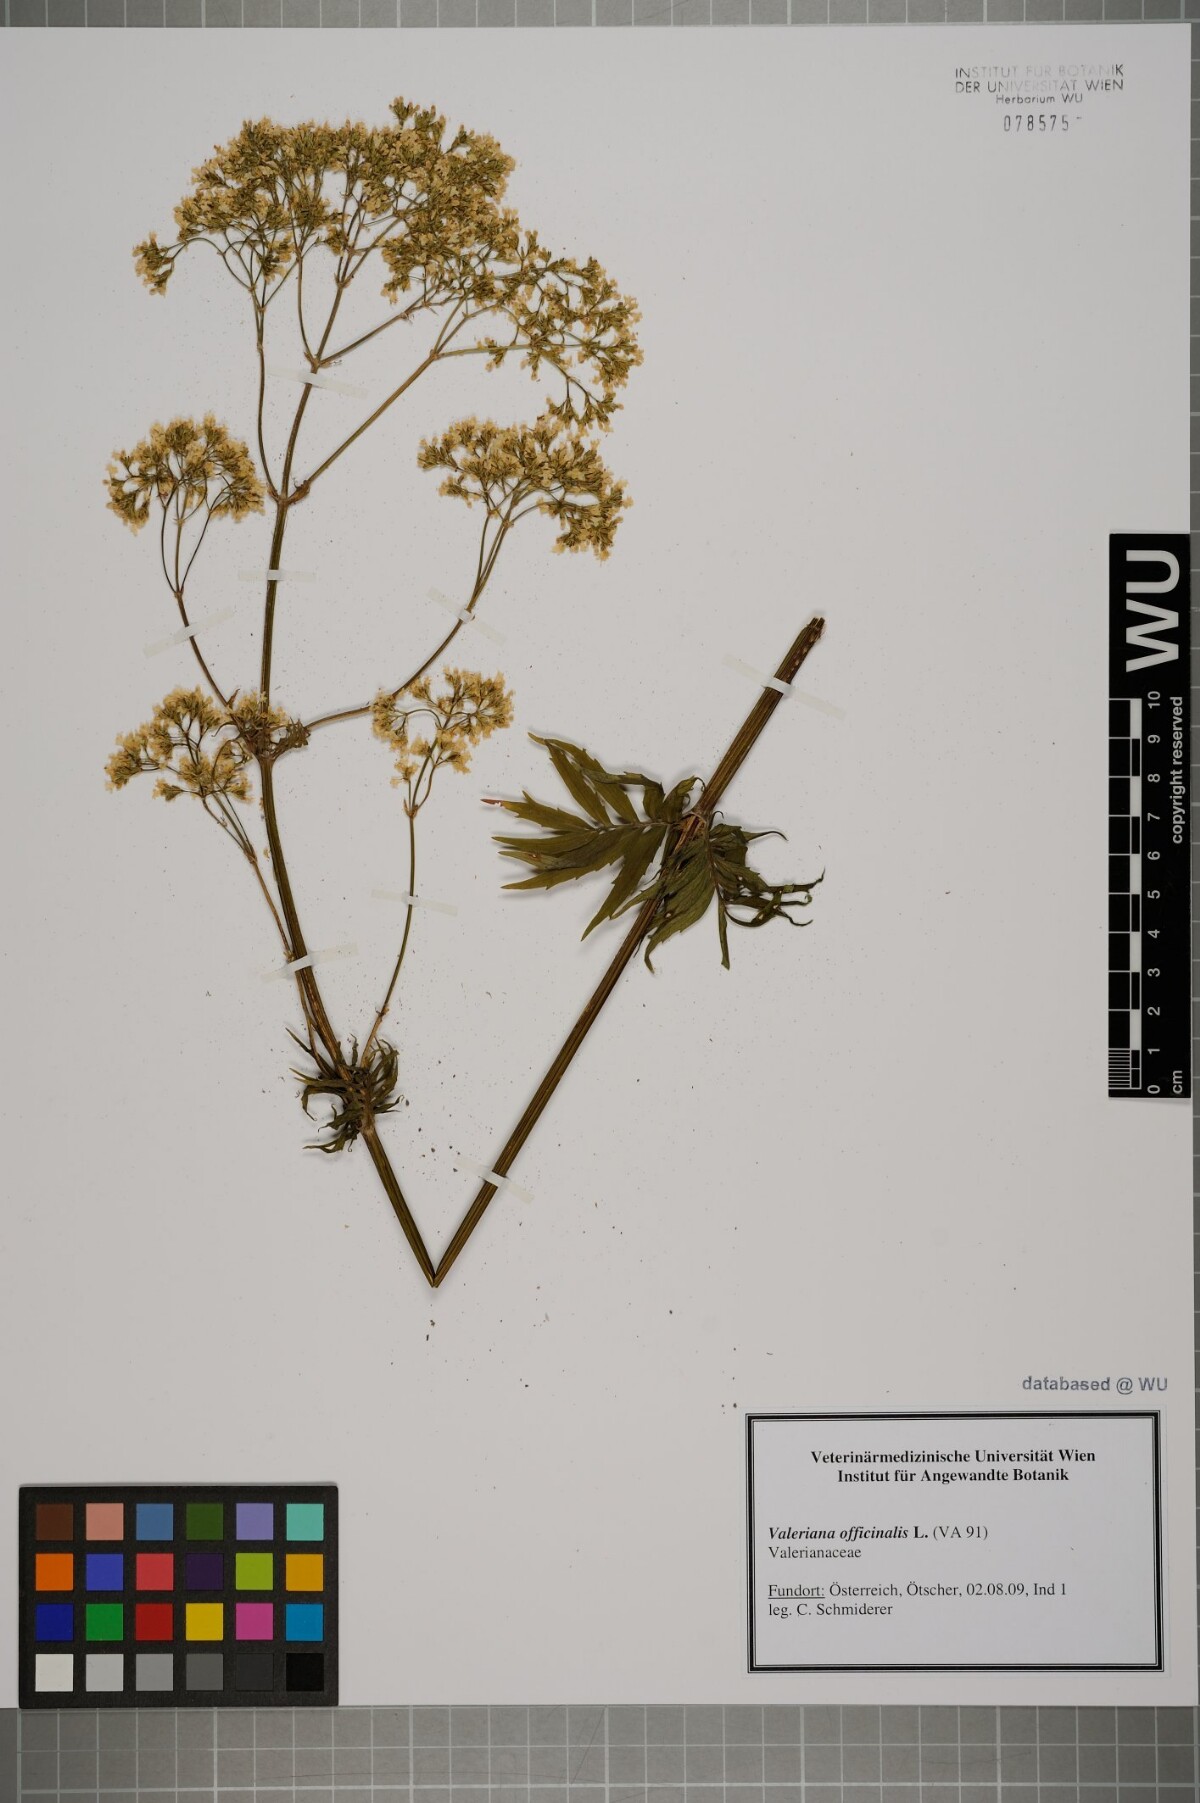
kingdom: Plantae
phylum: Tracheophyta
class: Magnoliopsida
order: Dipsacales
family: Caprifoliaceae
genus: Valeriana
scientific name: Valeriana officinalis
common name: Common valerian
